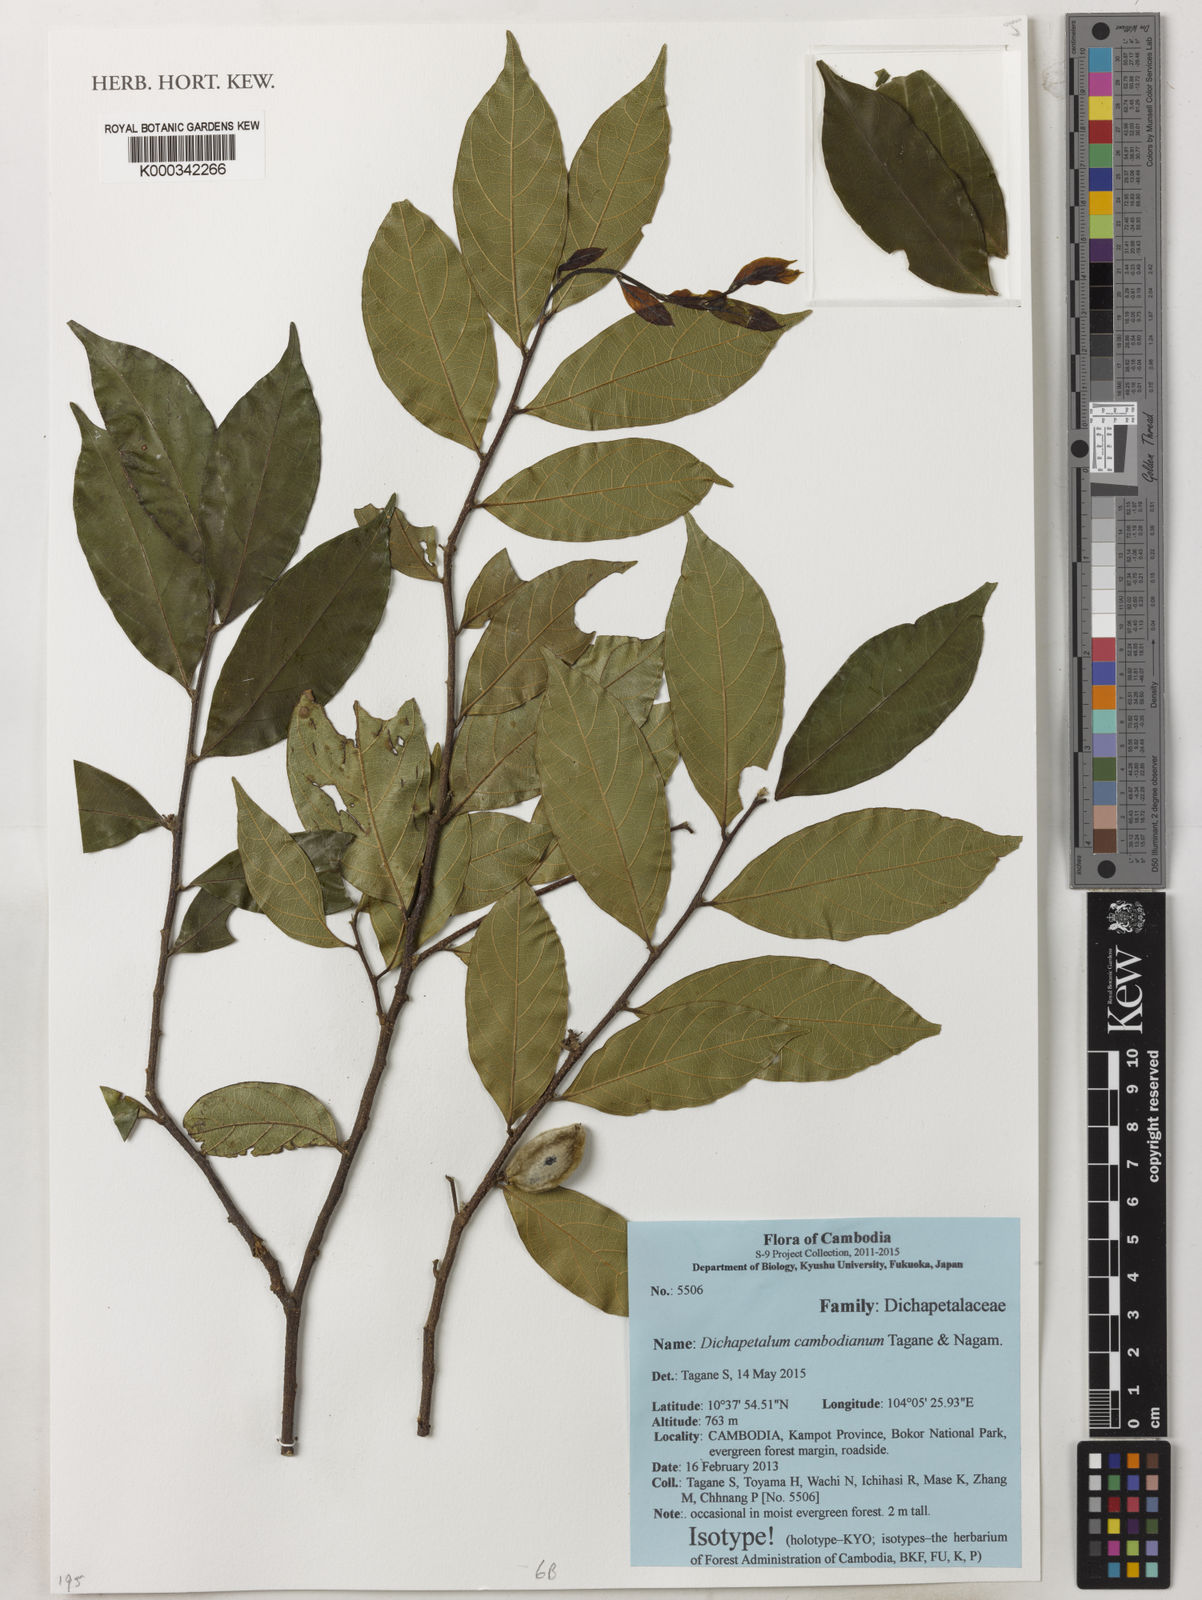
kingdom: Plantae
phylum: Tracheophyta
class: Magnoliopsida
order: Malpighiales
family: Dichapetalaceae
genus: Dichapetalum
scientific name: Dichapetalum cambodianum
